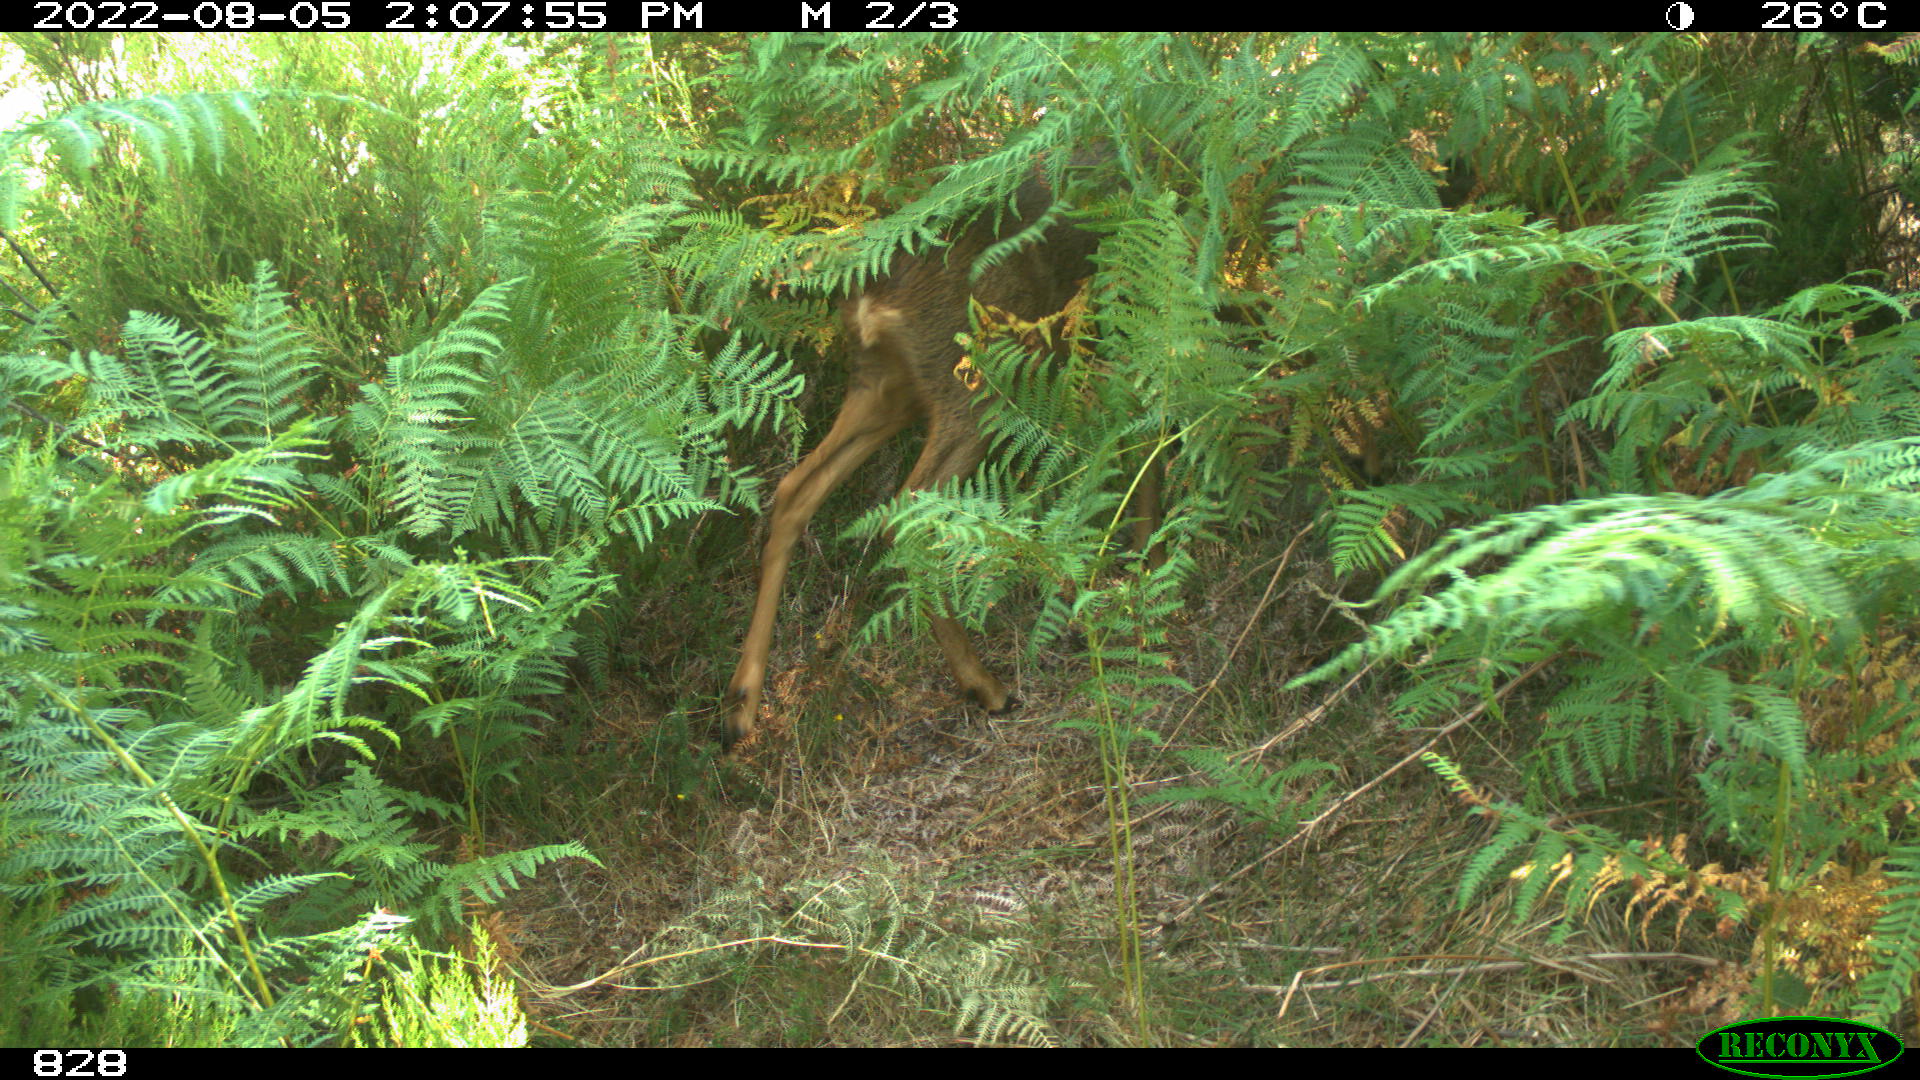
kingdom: Animalia
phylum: Chordata
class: Mammalia
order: Artiodactyla
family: Cervidae
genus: Capreolus
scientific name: Capreolus capreolus
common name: Western roe deer
